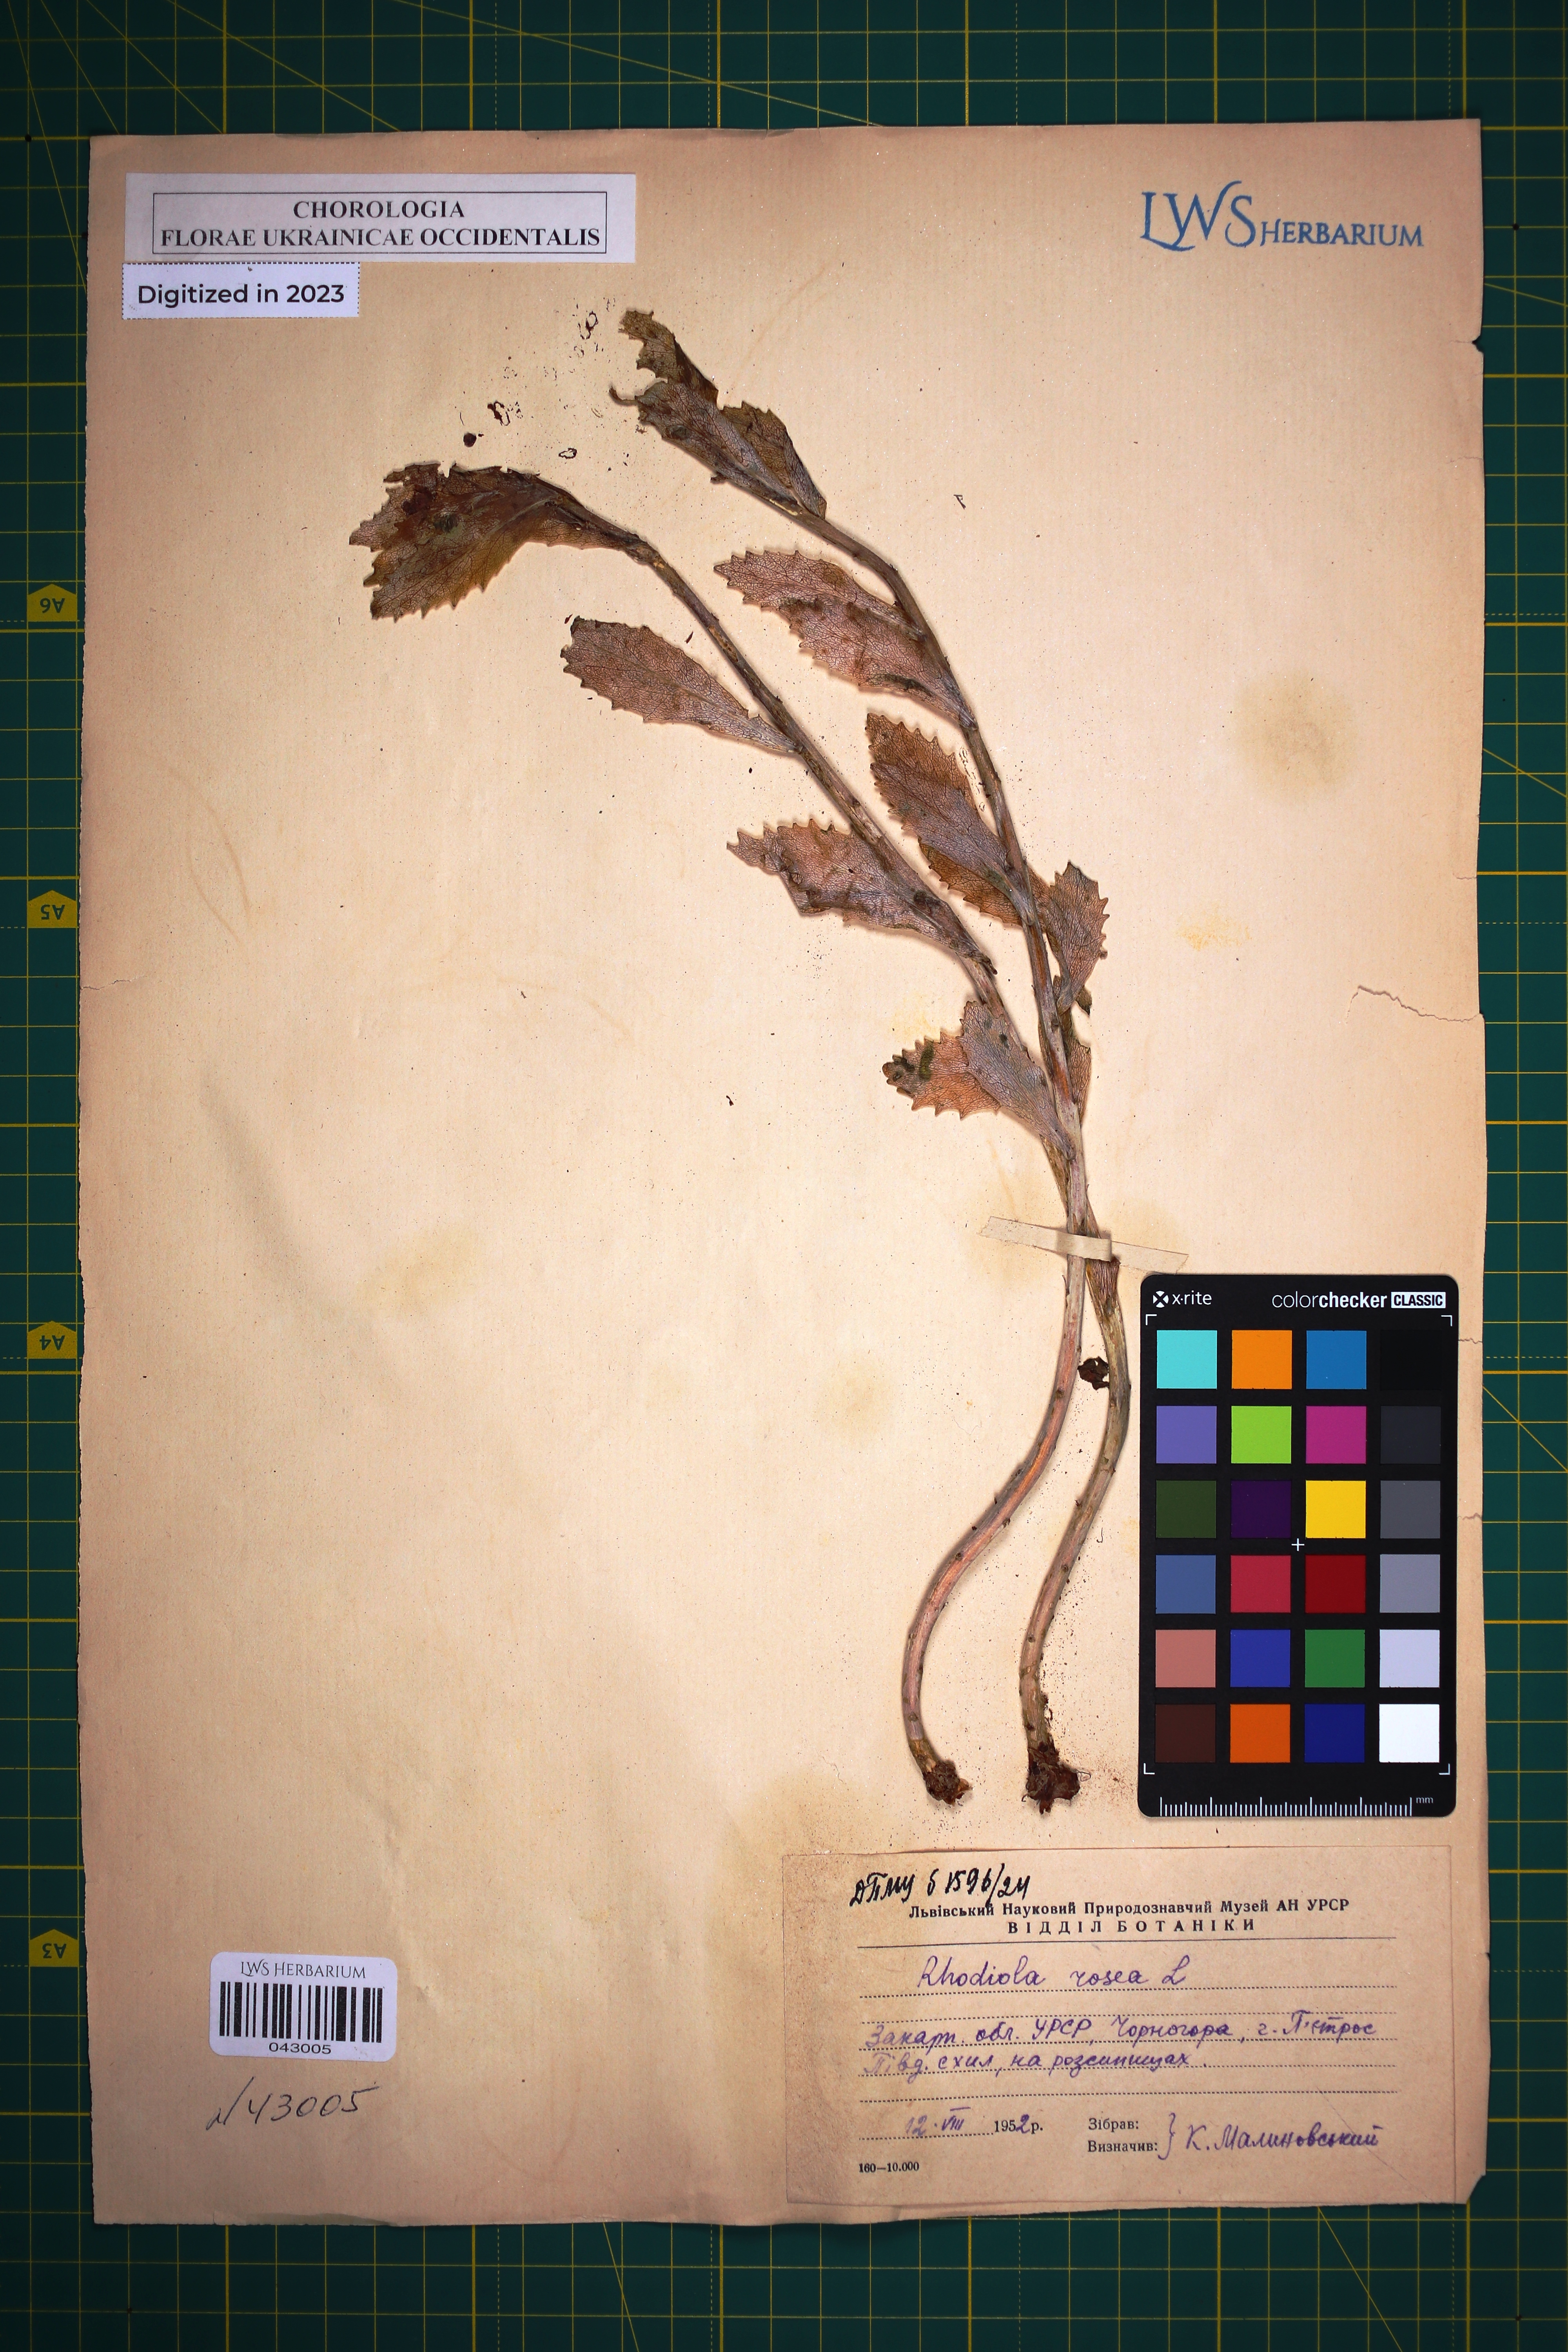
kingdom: Plantae
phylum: Tracheophyta
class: Magnoliopsida
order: Saxifragales
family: Crassulaceae
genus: Rhodiola
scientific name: Rhodiola rosea
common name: Roseroot
